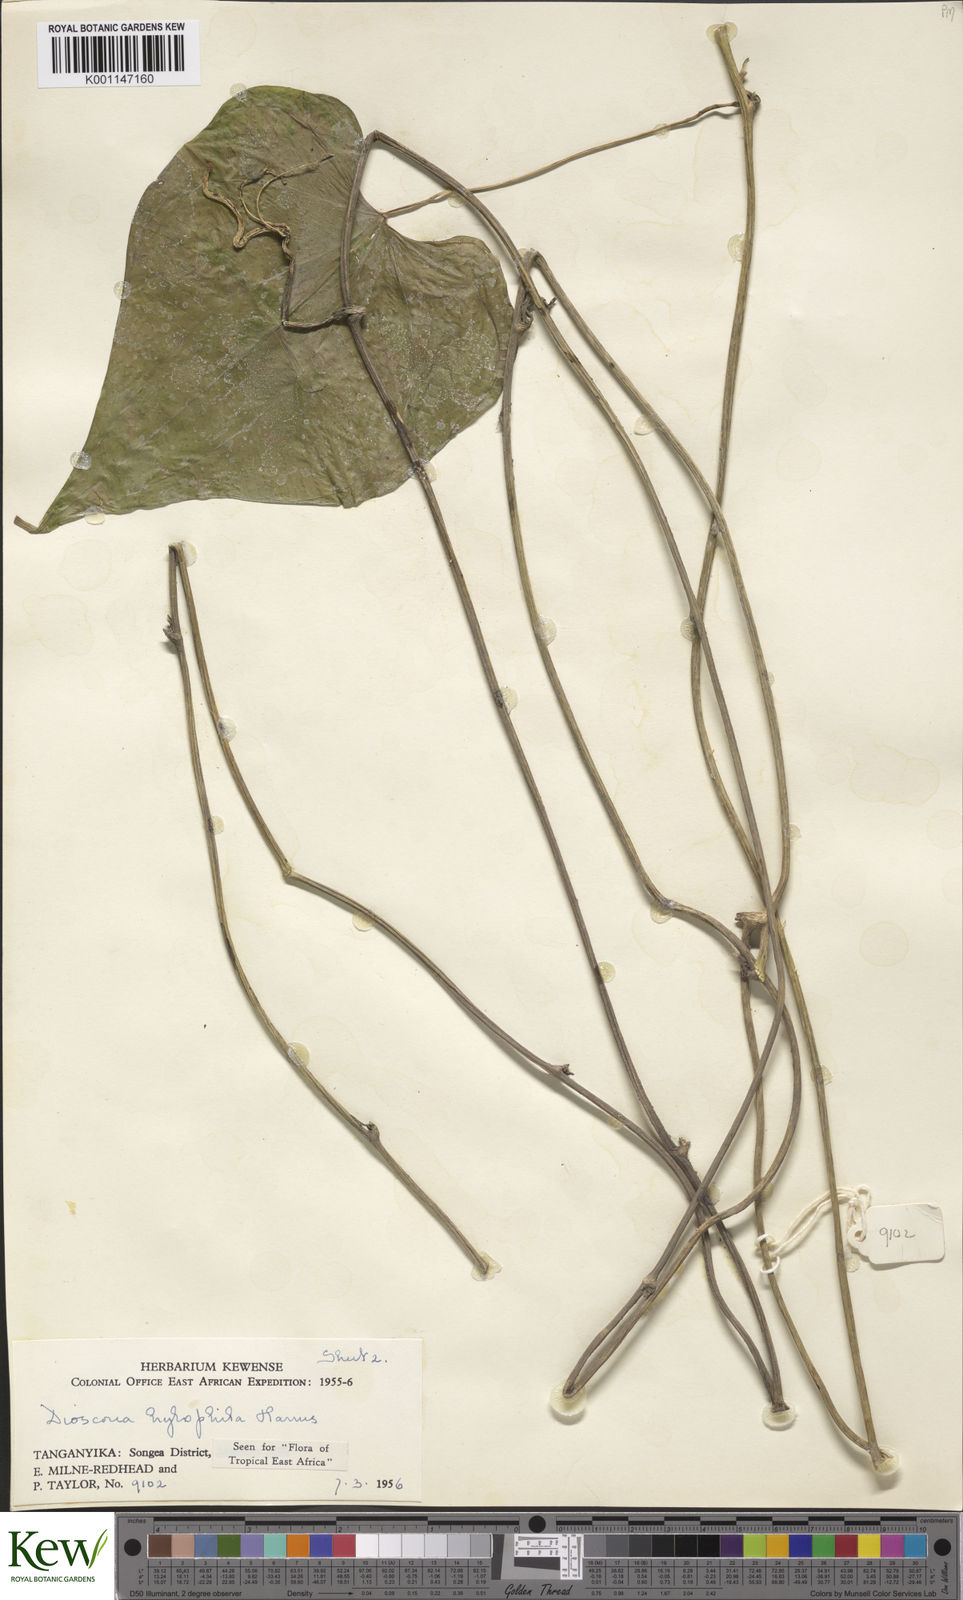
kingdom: Plantae
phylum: Tracheophyta
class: Liliopsida
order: Dioscoreales
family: Dioscoreaceae
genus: Dioscorea
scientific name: Dioscorea
